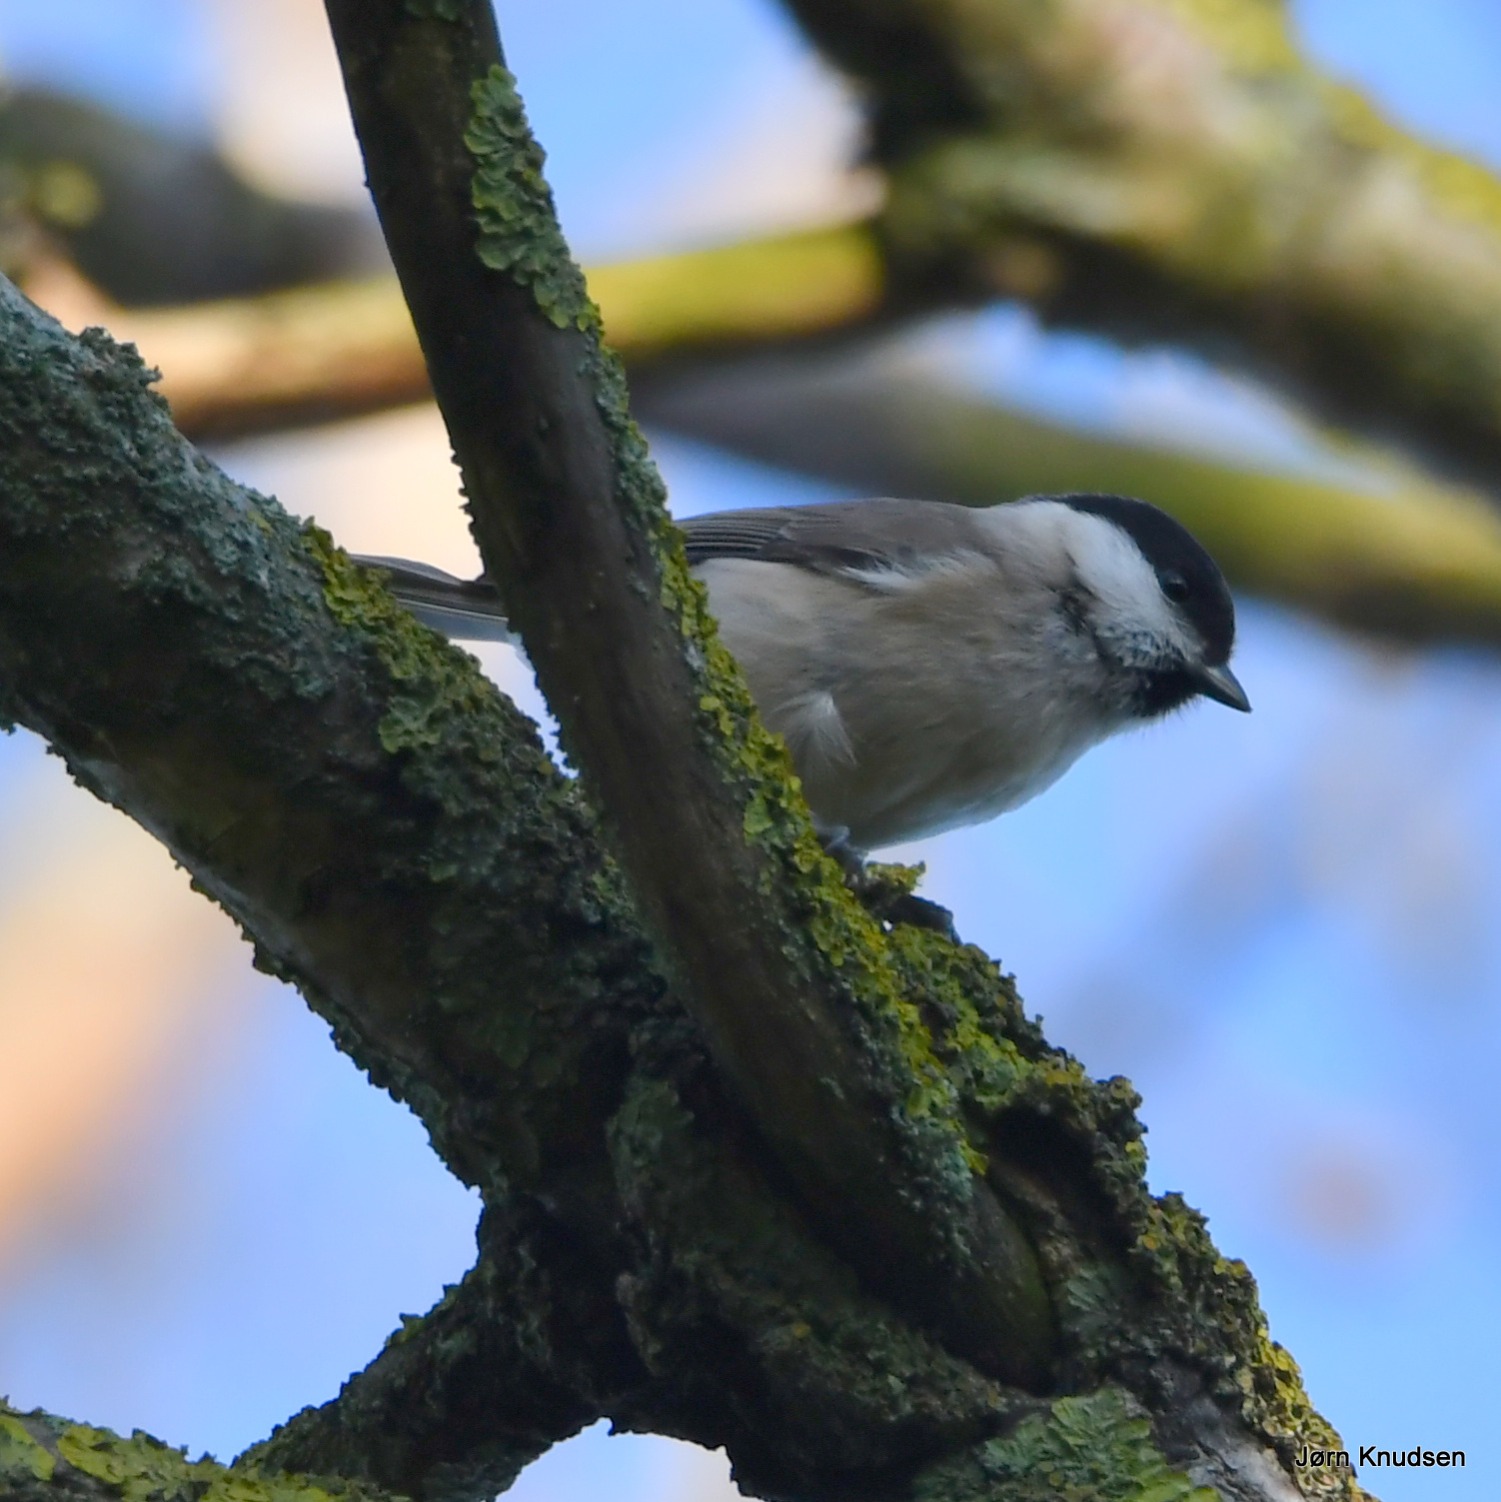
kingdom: Animalia
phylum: Chordata
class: Aves
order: Passeriformes
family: Paridae
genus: Poecile
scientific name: Poecile palustris
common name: Sumpmejse
